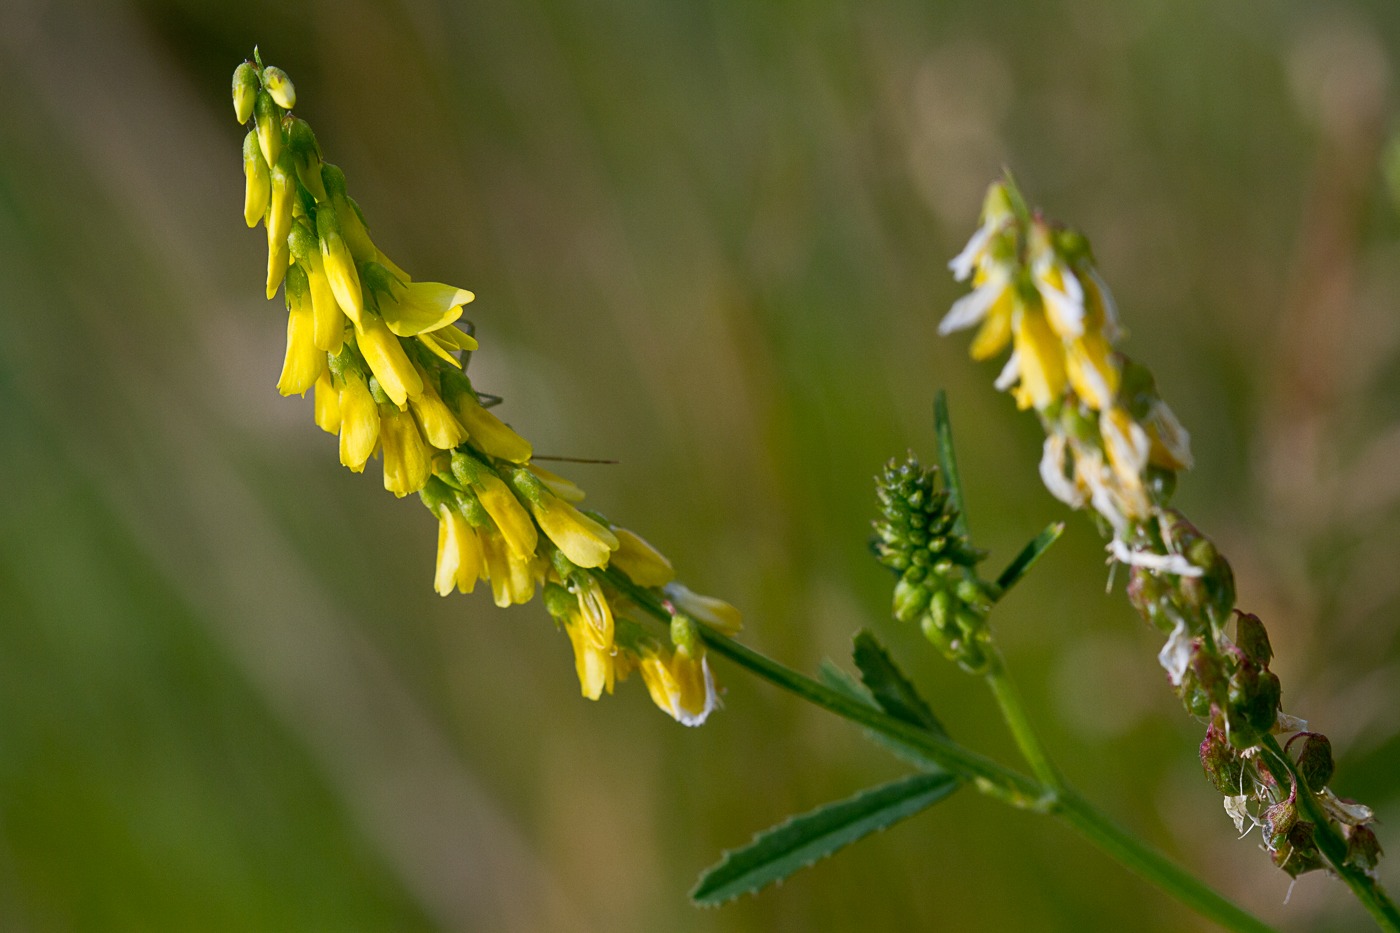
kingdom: Plantae
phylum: Tracheophyta
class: Magnoliopsida
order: Fabales
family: Fabaceae
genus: Melilotus
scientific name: Melilotus altissimus
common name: Høj stenkløver
